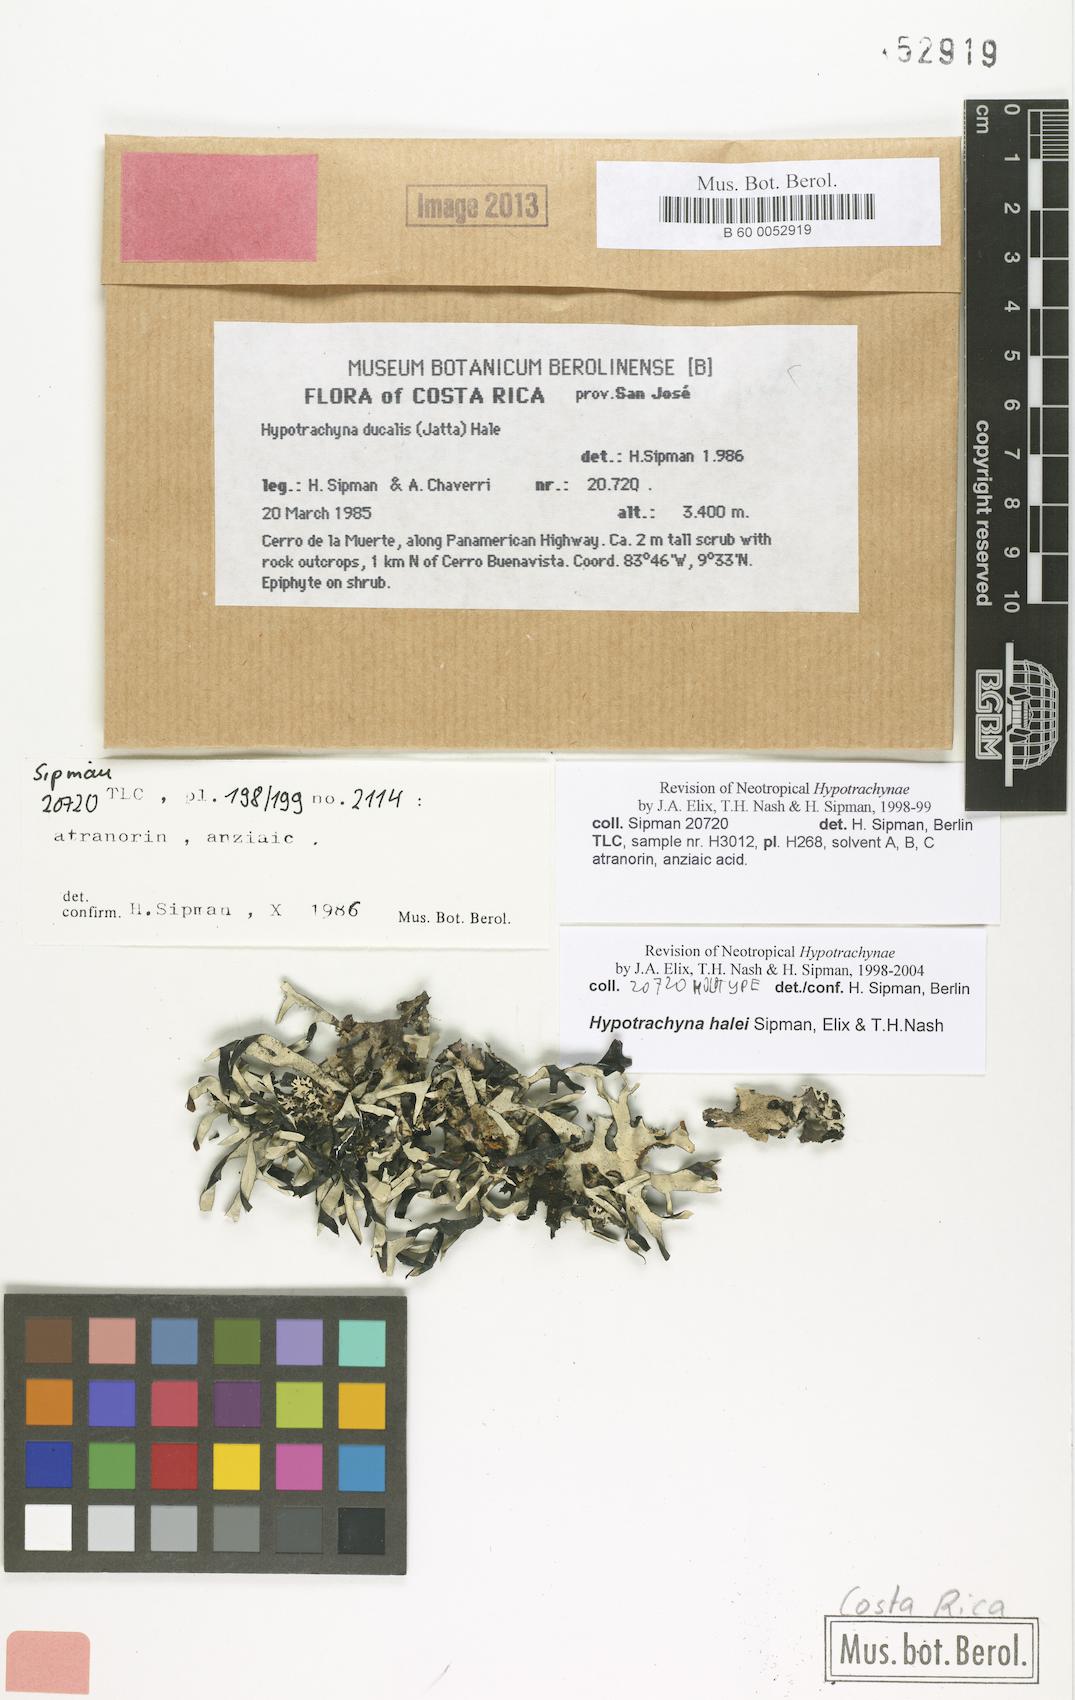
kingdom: Fungi
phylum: Ascomycota
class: Lecanoromycetes
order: Lecanorales
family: Parmeliaceae
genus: Hypotrachyna
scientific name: Hypotrachyna halei
